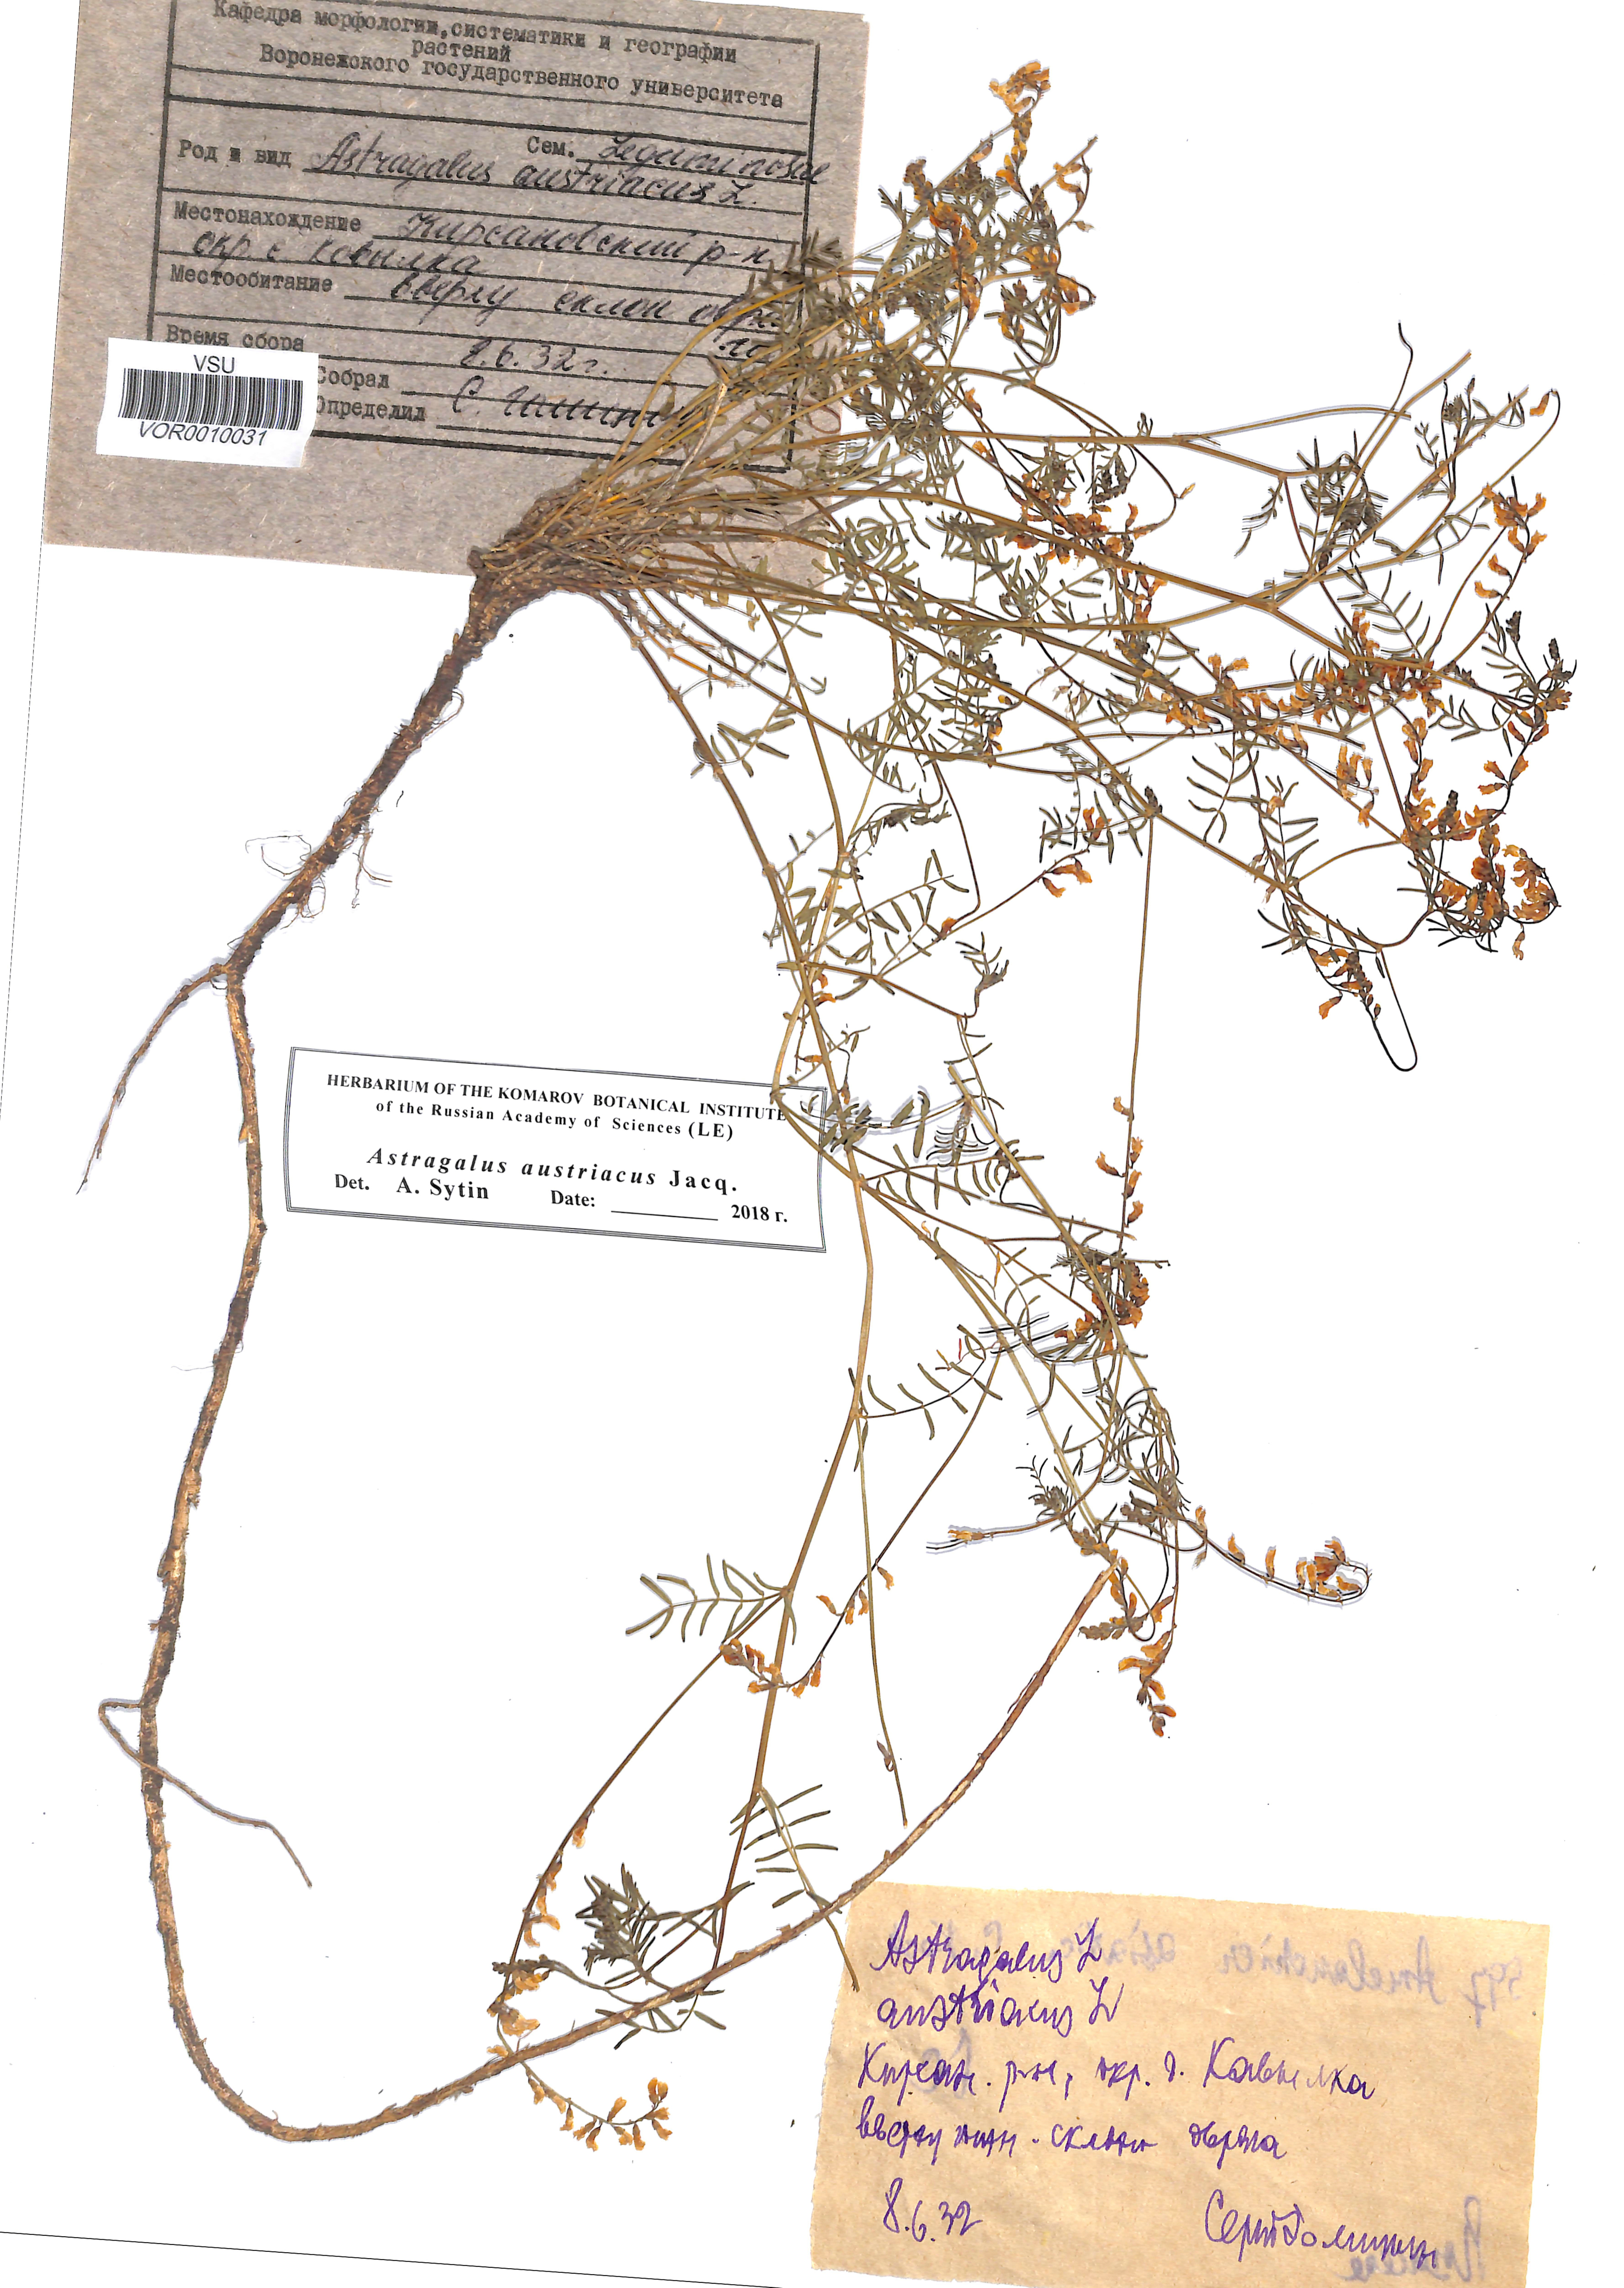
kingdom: Plantae
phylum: Tracheophyta
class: Magnoliopsida
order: Fabales
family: Fabaceae
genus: Astragalus
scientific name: Astragalus austriacus
